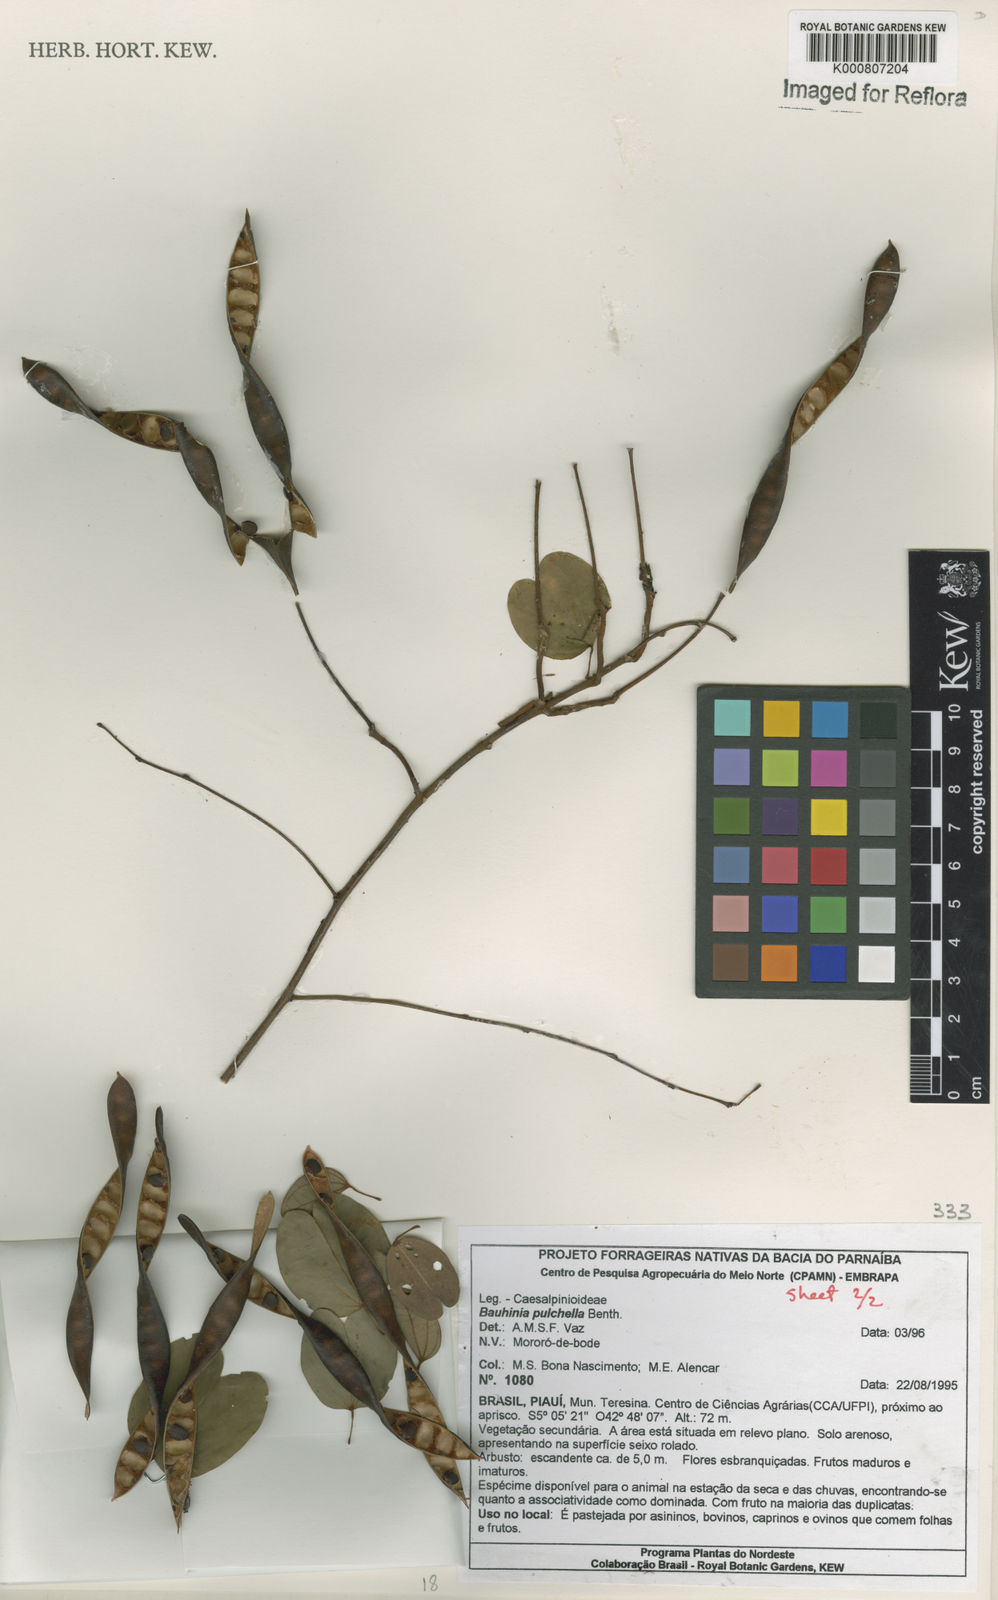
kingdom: Plantae
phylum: Tracheophyta
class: Magnoliopsida
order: Fabales
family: Fabaceae
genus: Bauhinia
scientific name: Bauhinia pulchella
